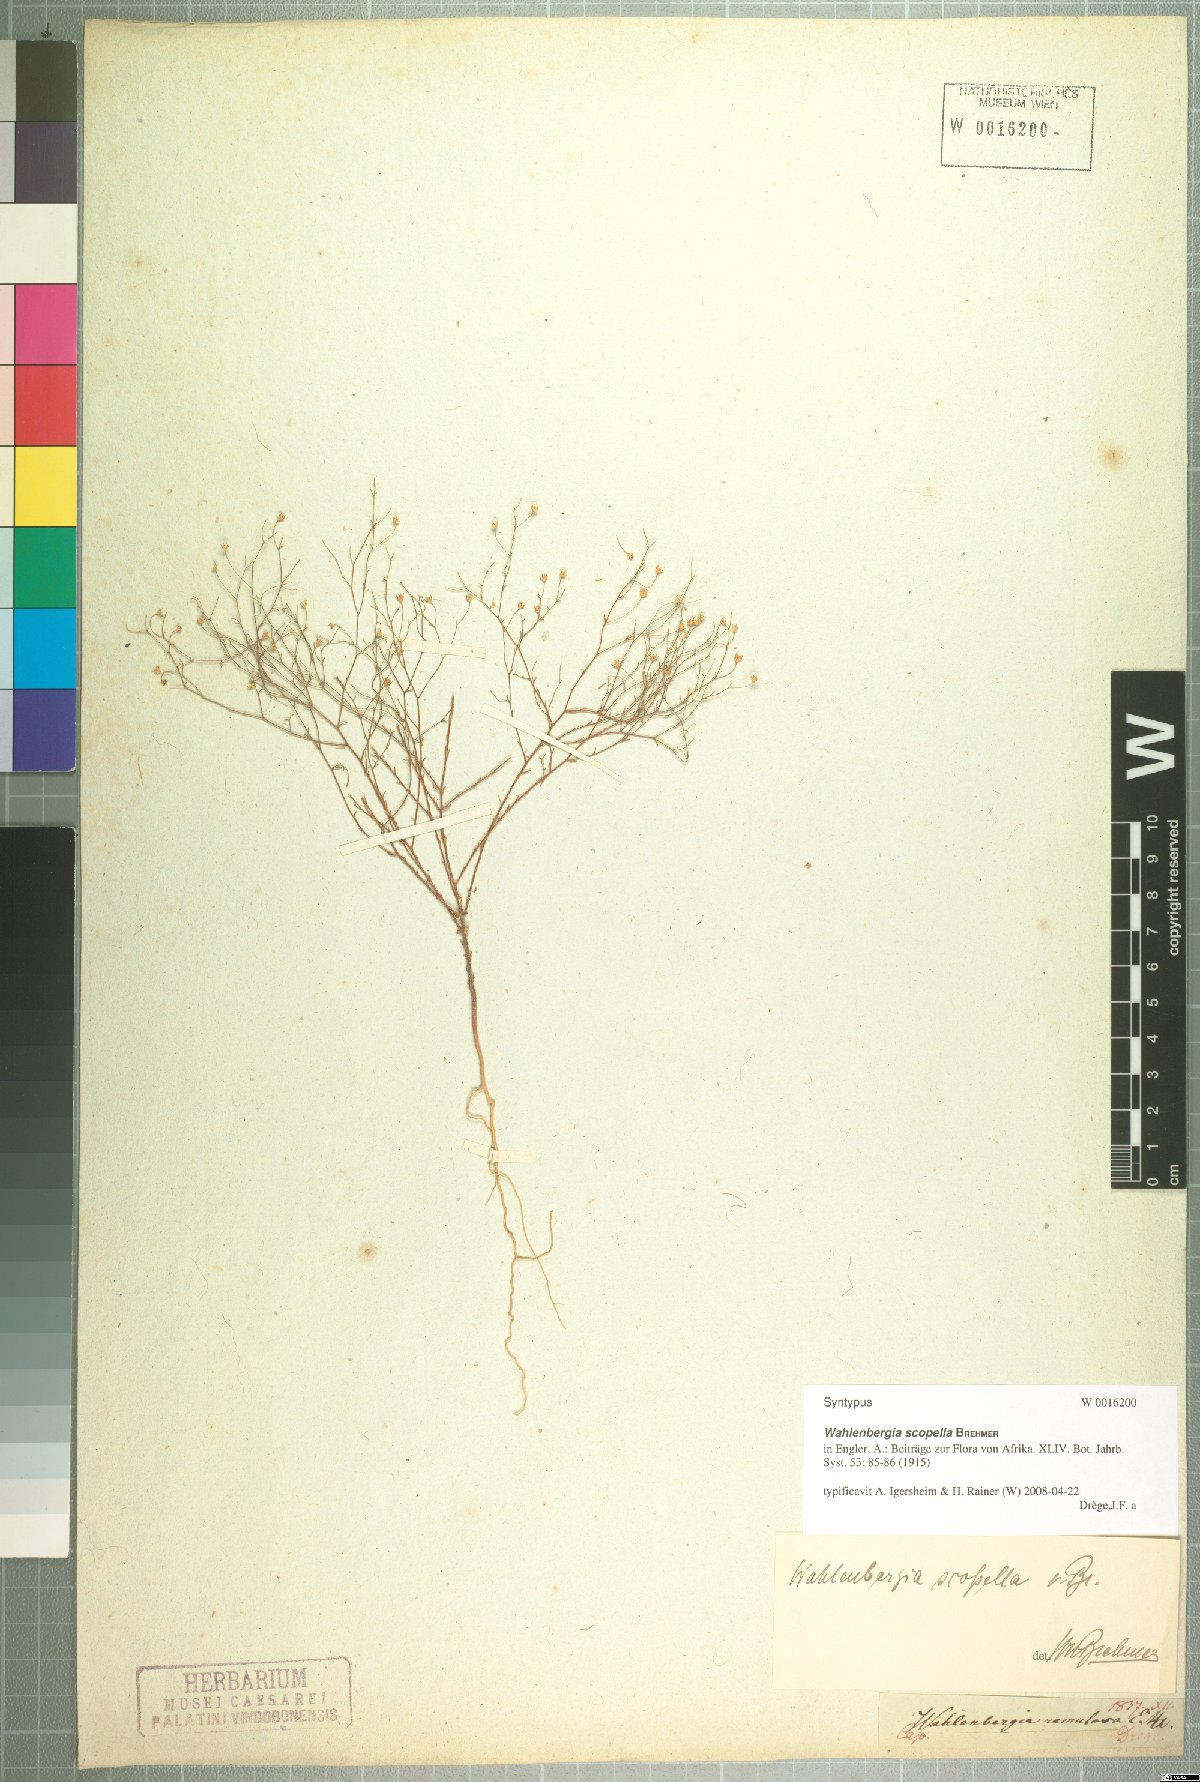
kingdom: Plantae
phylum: Tracheophyta
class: Magnoliopsida
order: Asterales
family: Campanulaceae
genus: Wahlenbergia
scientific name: Wahlenbergia scopella
